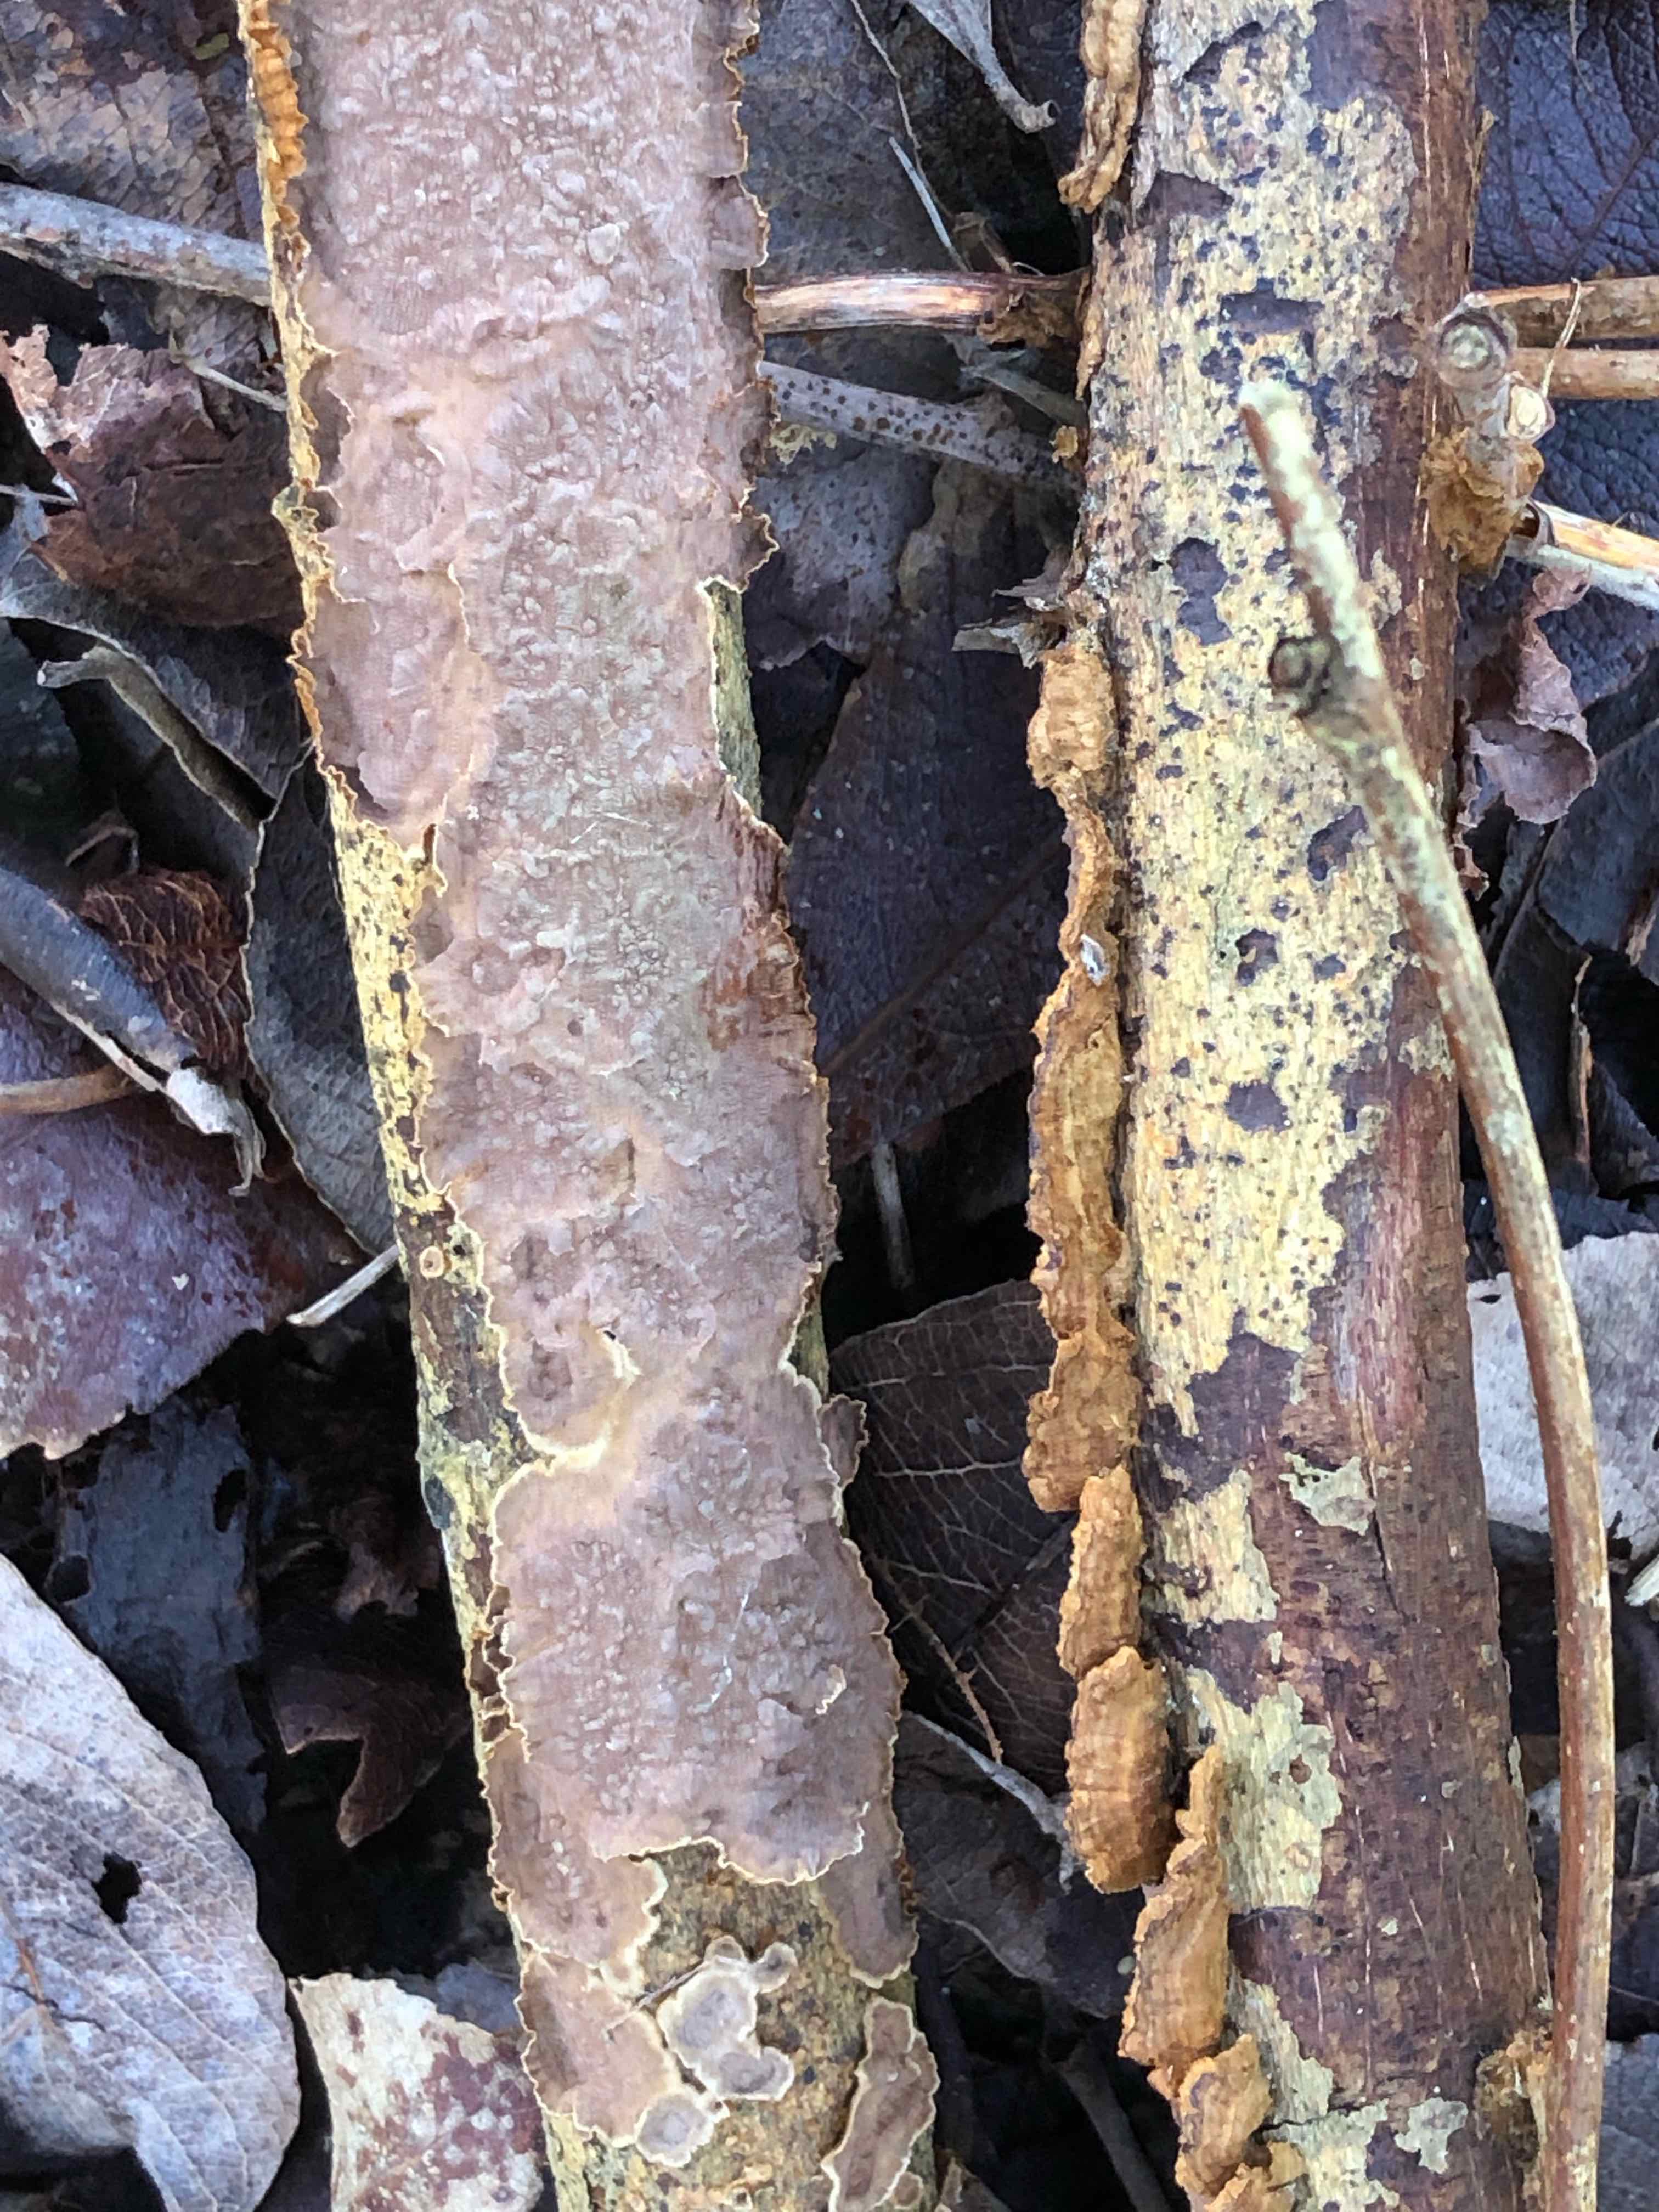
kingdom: Fungi
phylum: Basidiomycota
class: Agaricomycetes
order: Hymenochaetales
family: Hymenochaetaceae
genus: Hydnoporia
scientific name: Hydnoporia tabacina
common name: tobaksbrun ruslædersvamp
